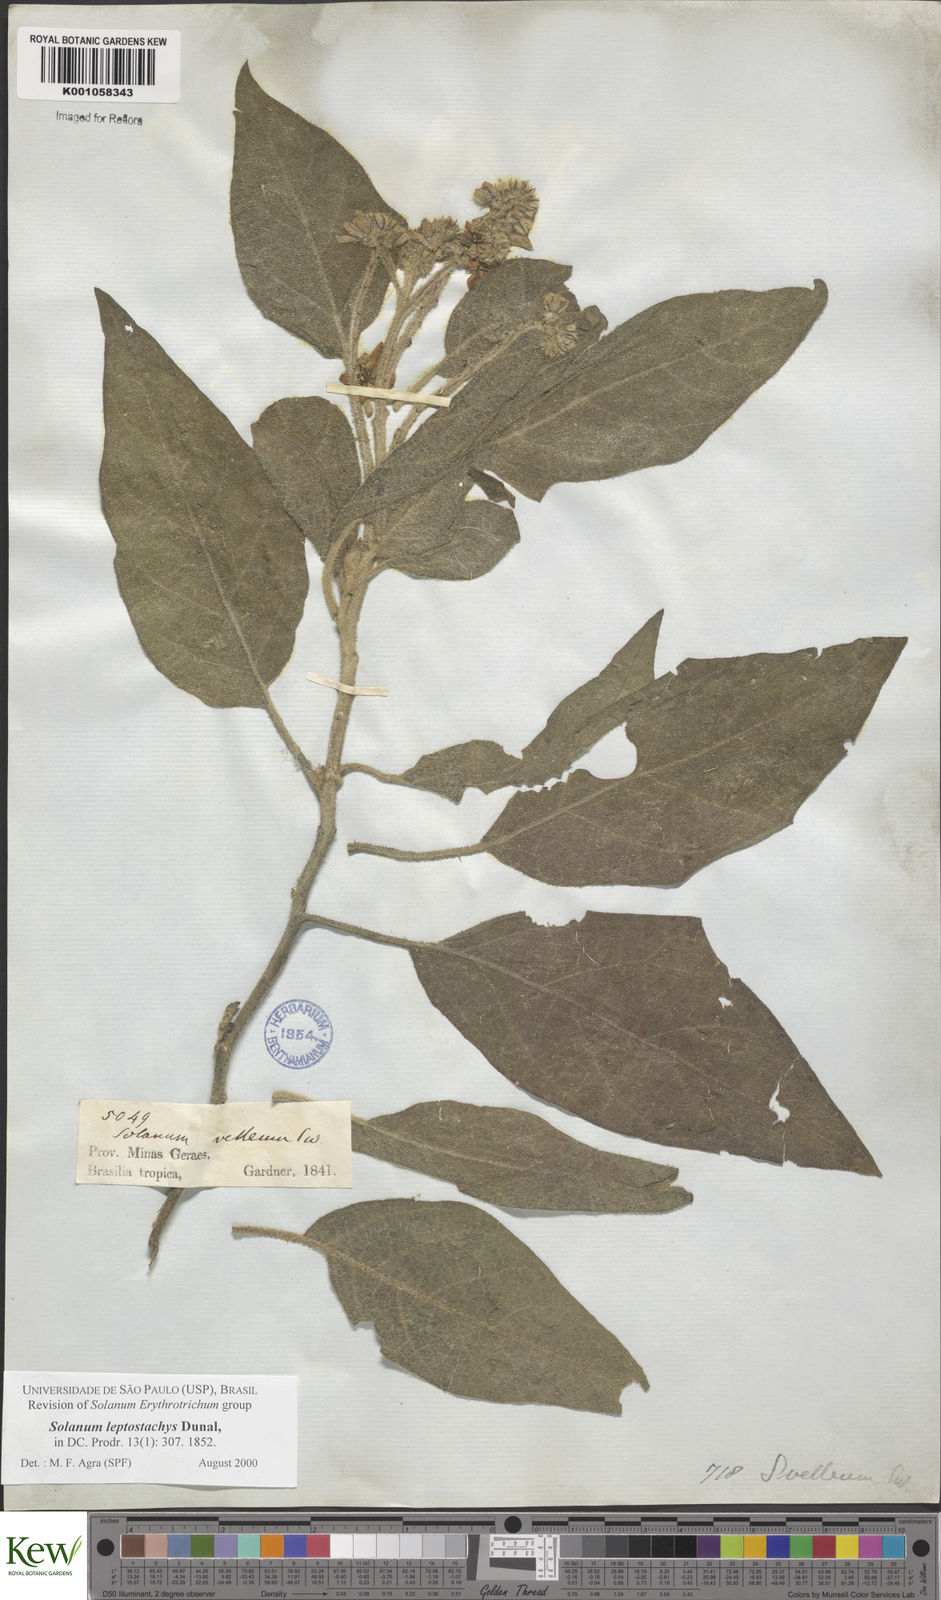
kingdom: Plantae
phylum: Tracheophyta
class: Magnoliopsida
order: Solanales
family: Solanaceae
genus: Solanum
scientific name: Solanum leptostachys
